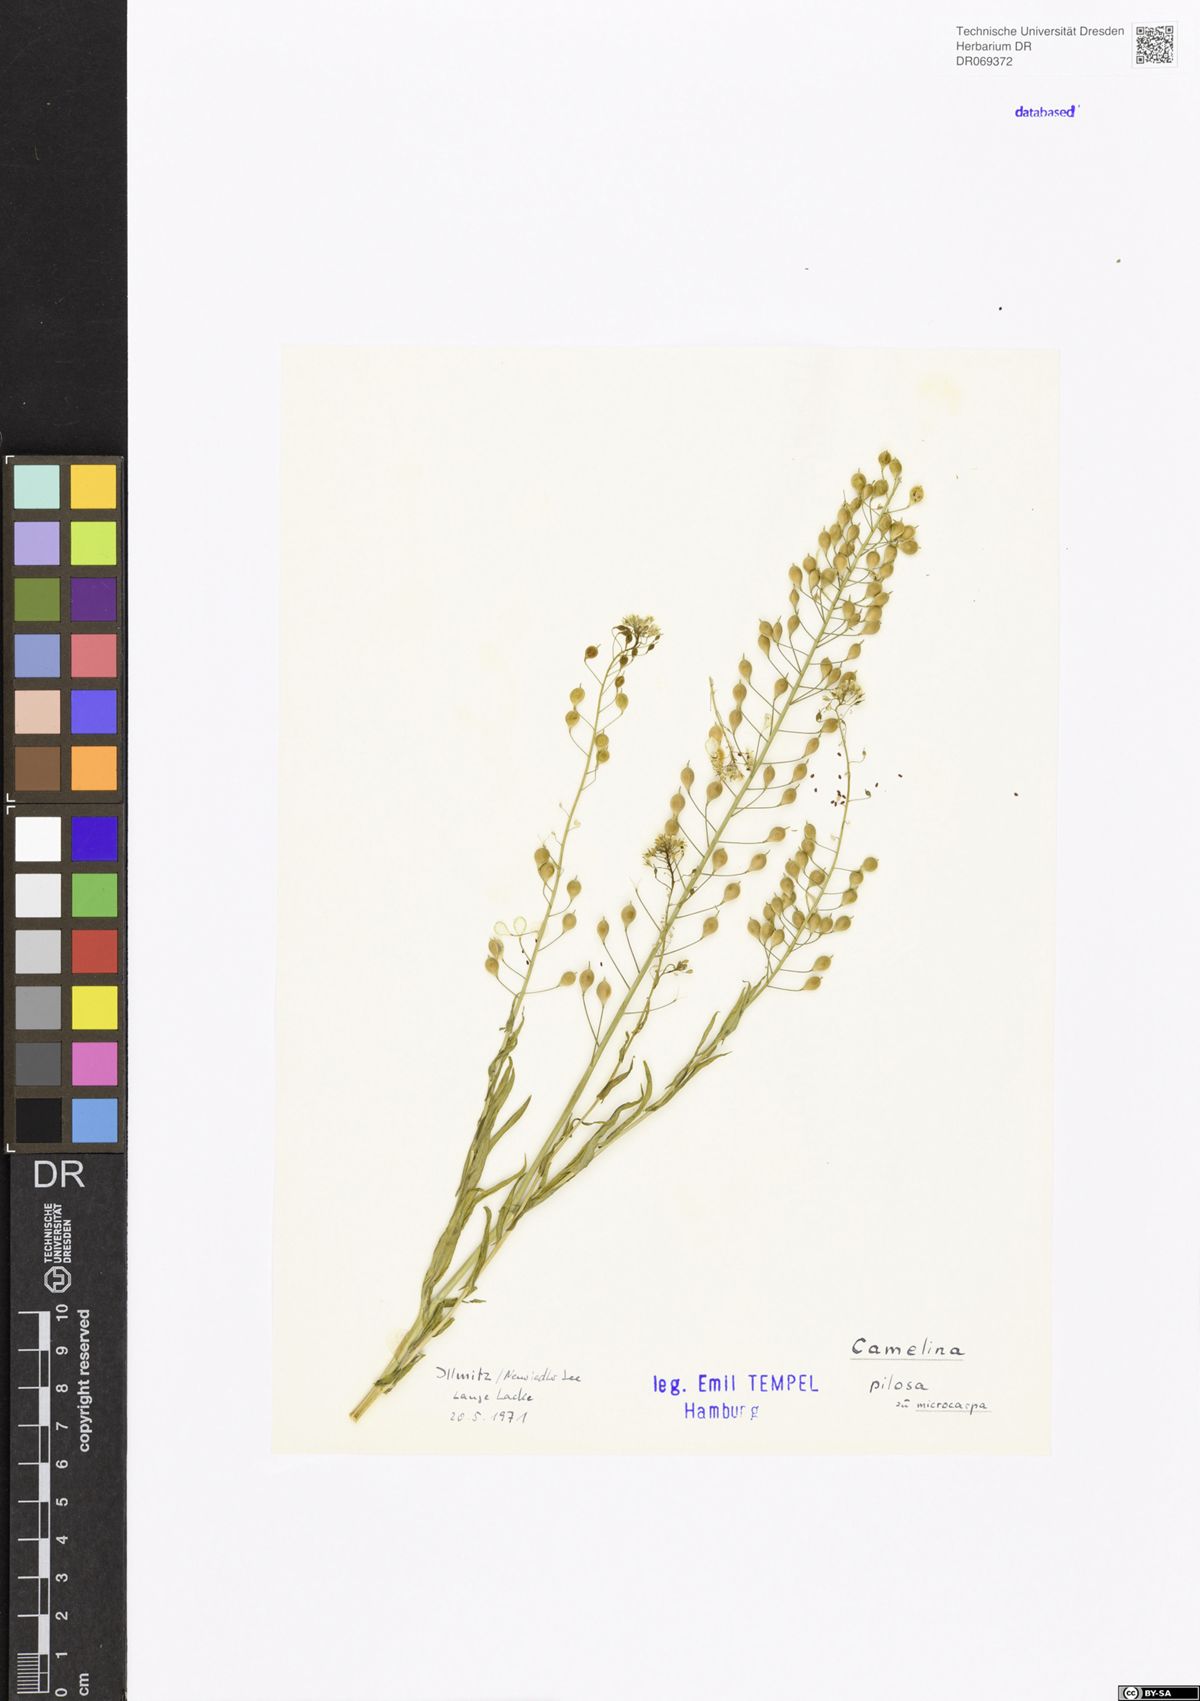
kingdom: Plantae
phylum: Tracheophyta
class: Magnoliopsida
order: Brassicales
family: Brassicaceae
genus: Camelina
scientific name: Camelina microcarpa
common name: Lesser gold-of-pleasure
